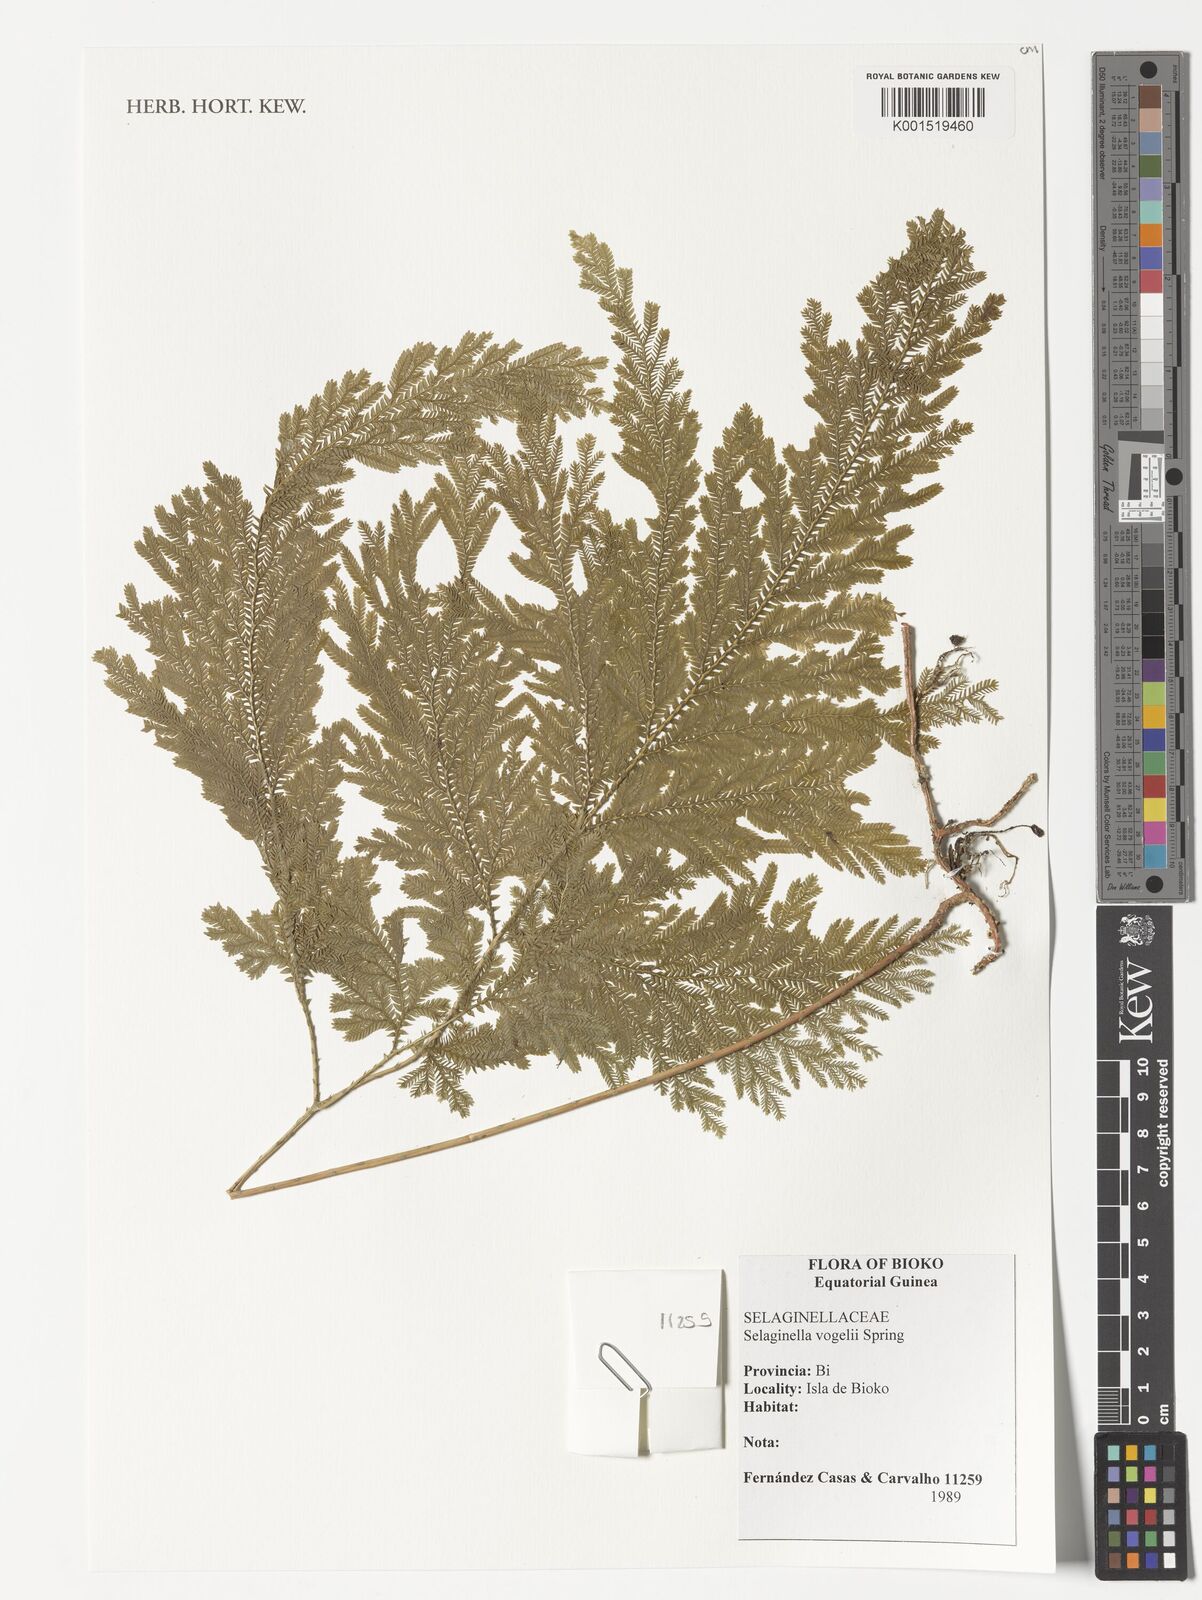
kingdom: Plantae
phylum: Tracheophyta
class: Lycopodiopsida
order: Selaginellales
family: Selaginellaceae
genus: Selaginella
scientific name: Selaginella vogelii
